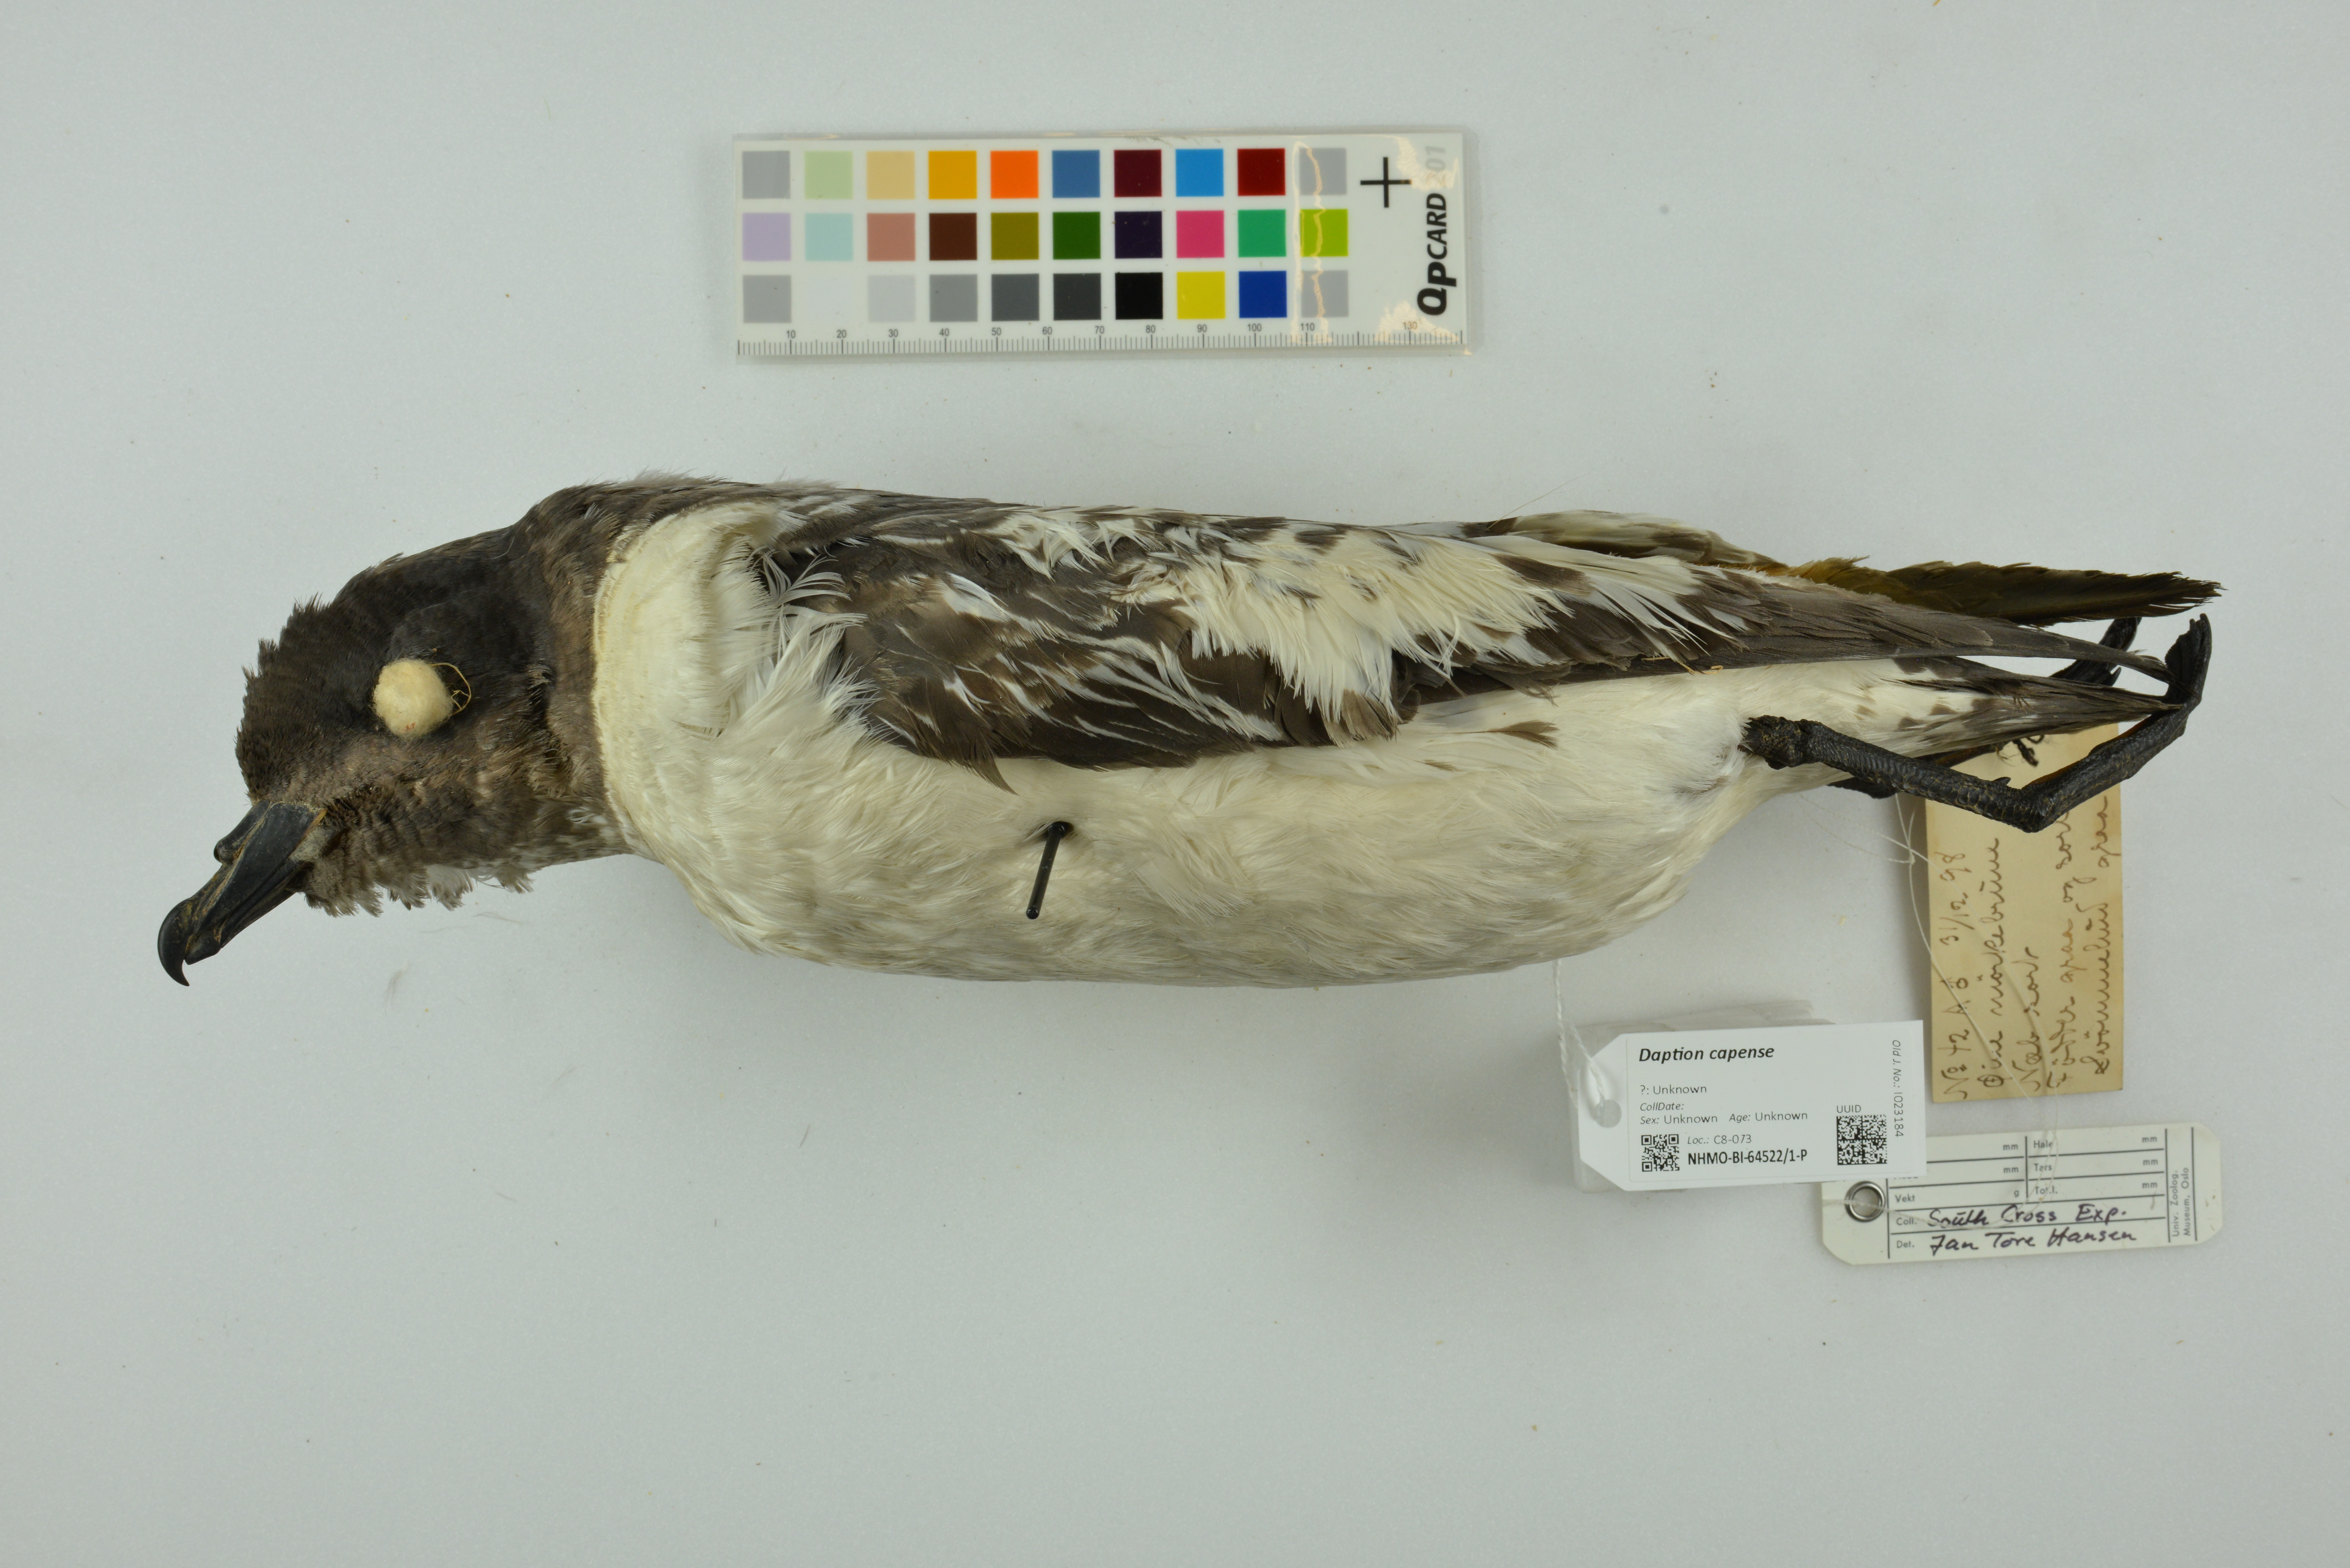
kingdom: Animalia
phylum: Chordata
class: Aves
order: Procellariiformes
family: Procellariidae
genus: Daption
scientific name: Daption capense
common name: Cape petrel
